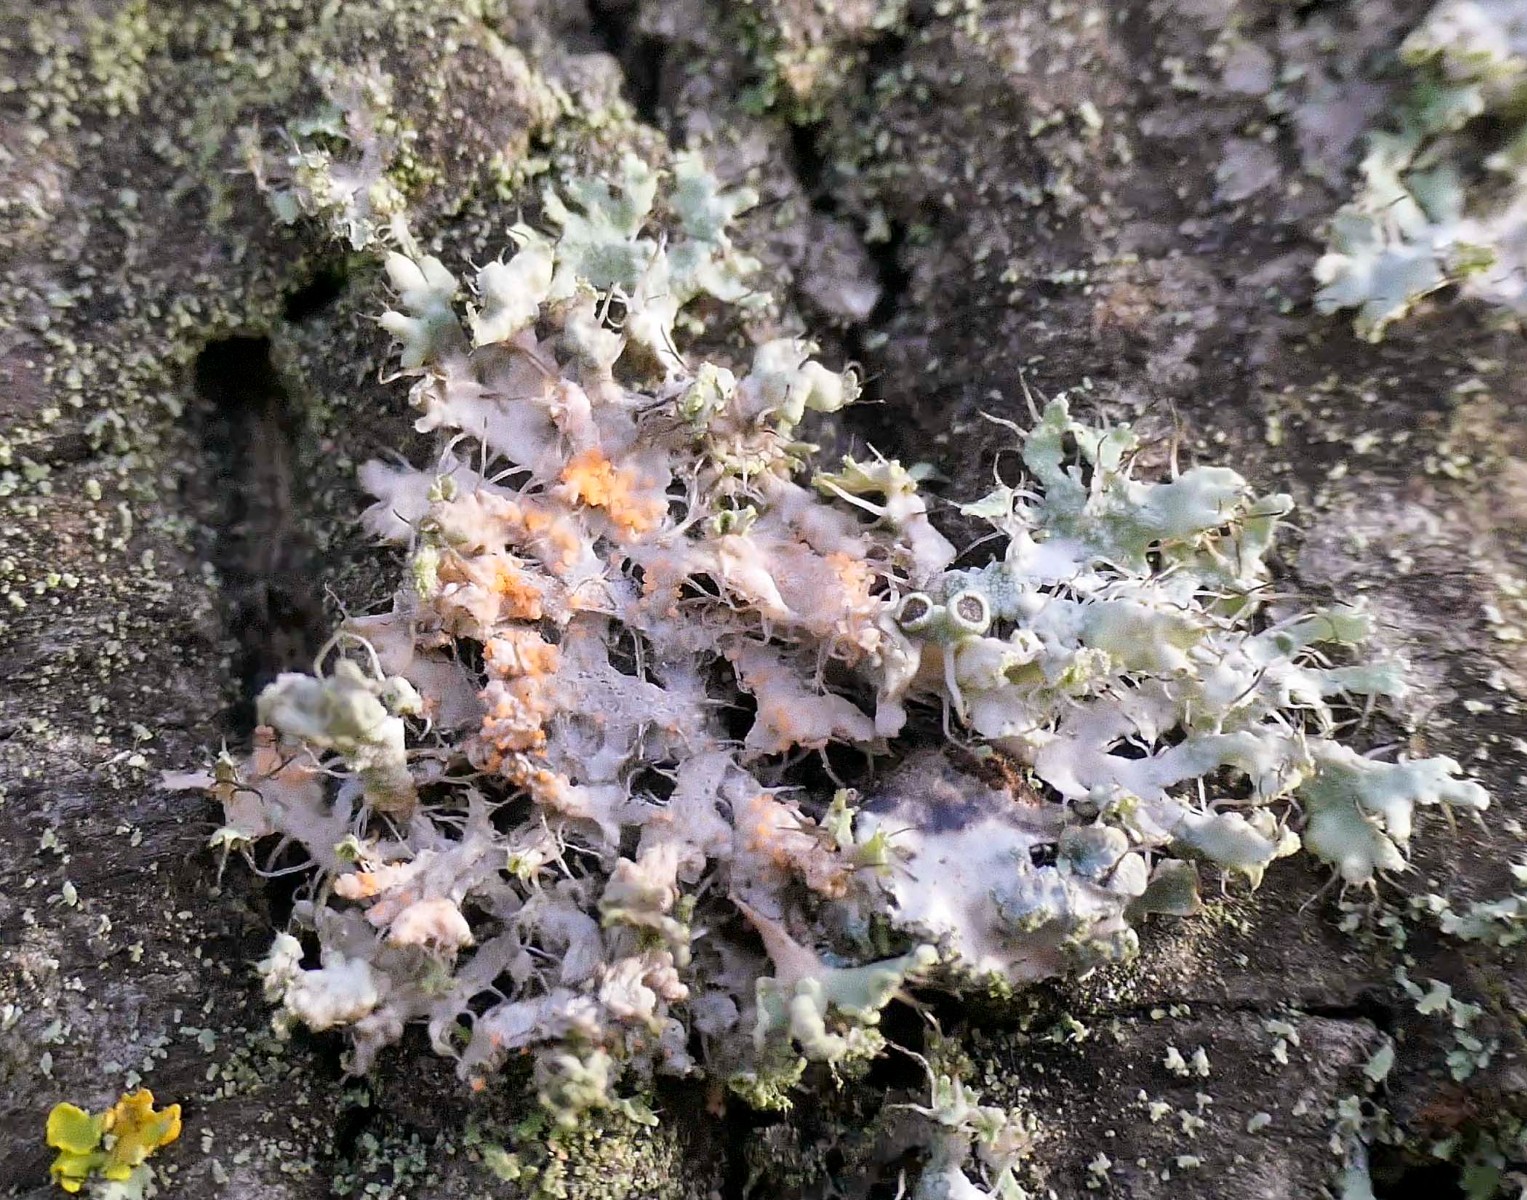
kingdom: Fungi
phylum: Basidiomycota
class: Agaricomycetes
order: Corticiales
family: Corticiaceae
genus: Erythricium
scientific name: Erythricium aurantiacum
